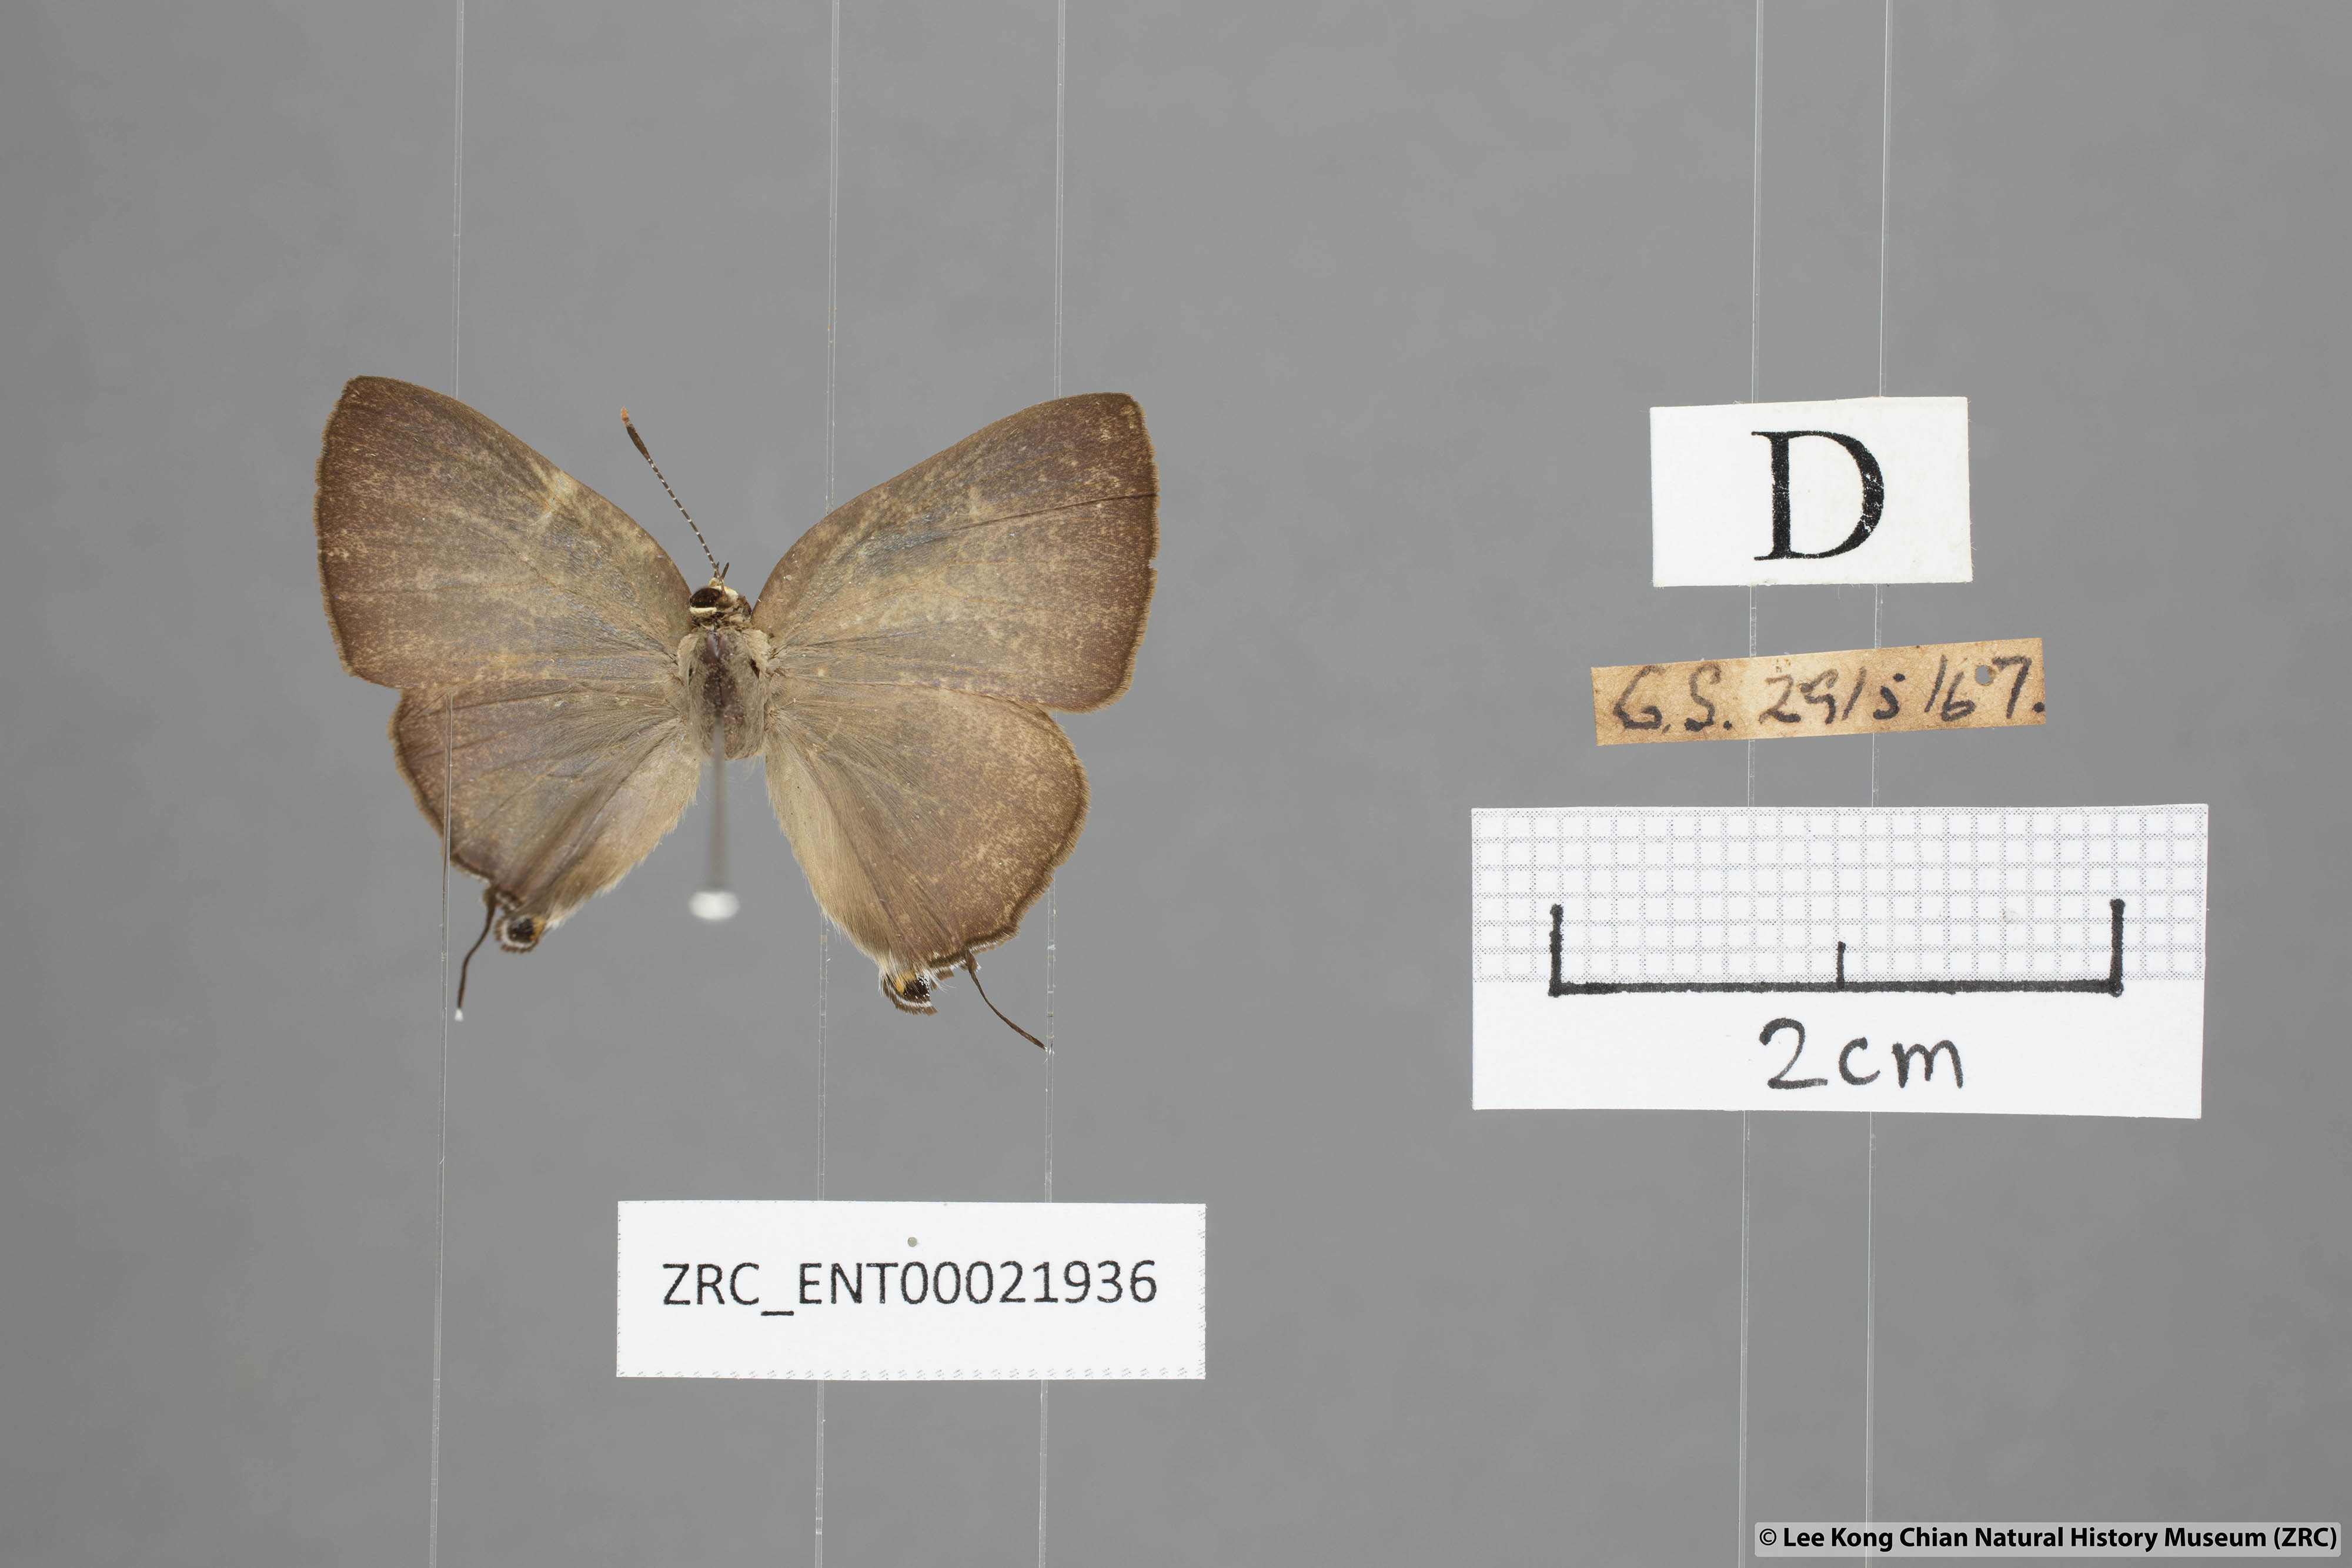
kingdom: Animalia
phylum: Arthropoda
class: Insecta
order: Lepidoptera
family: Lycaenidae
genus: Rapala
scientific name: Rapala varuna
